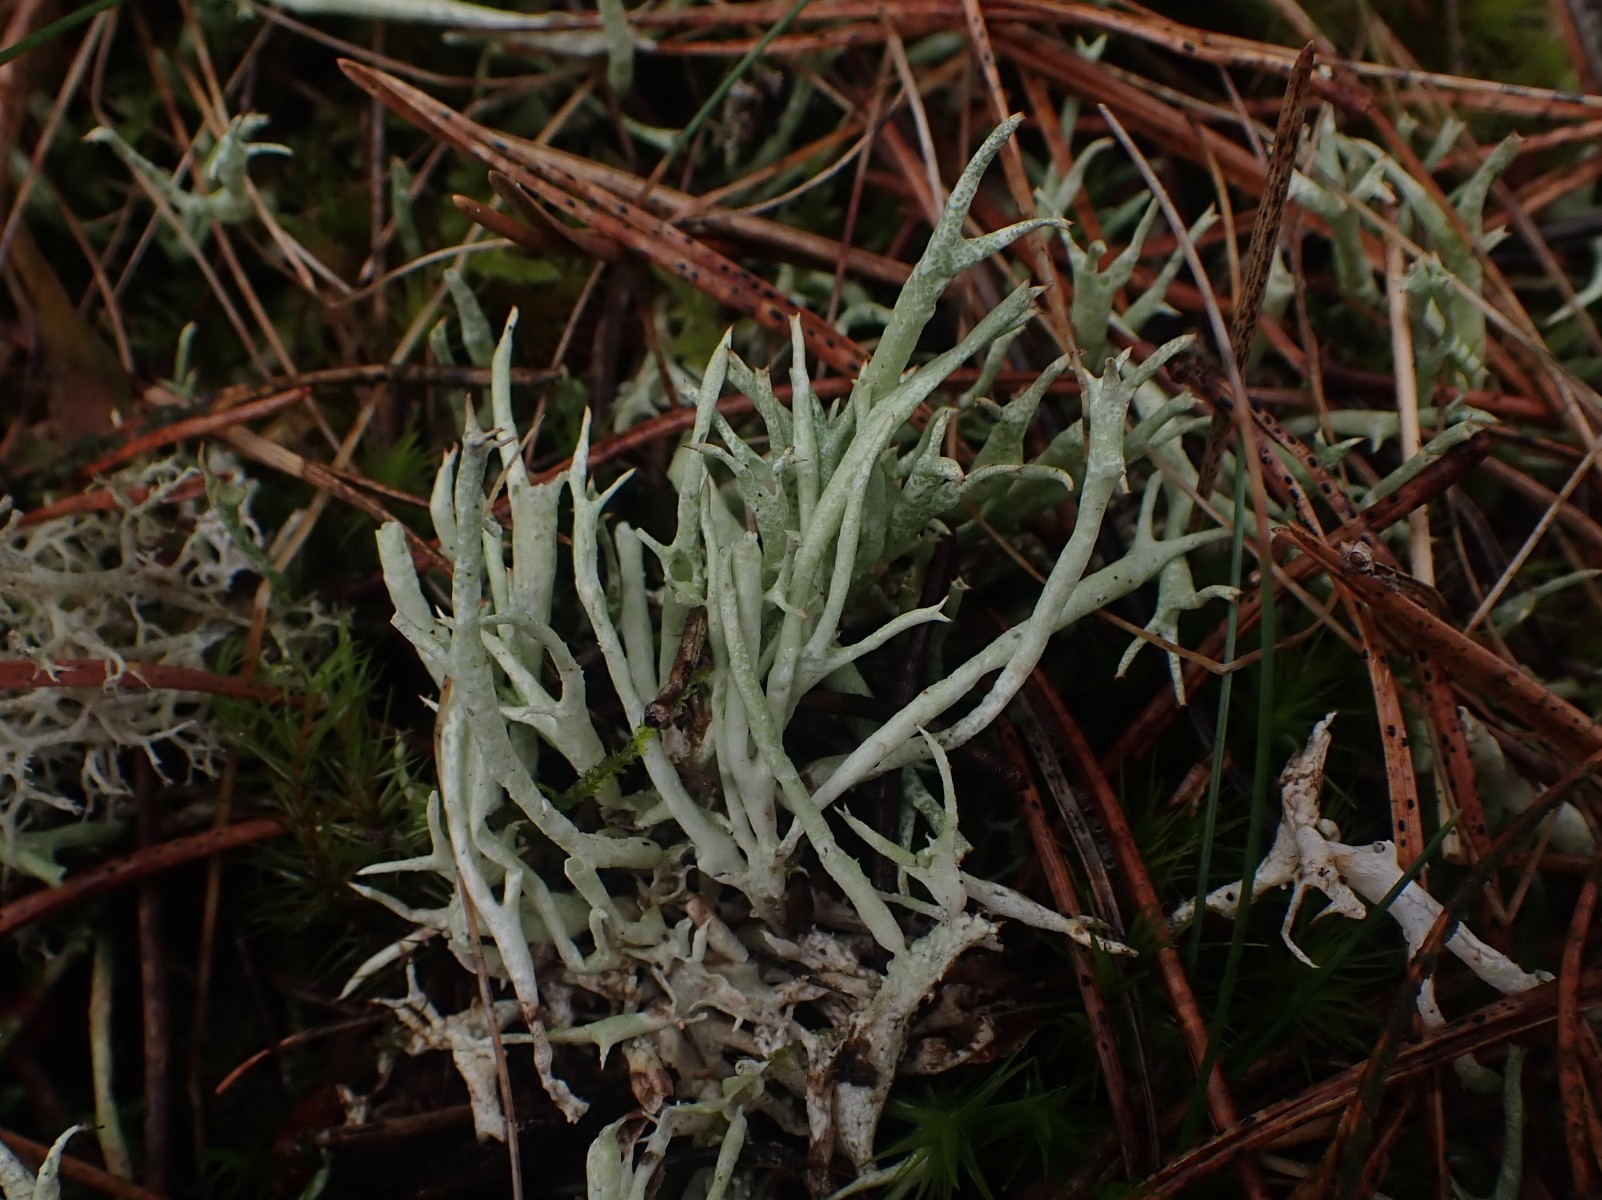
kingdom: Fungi
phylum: Ascomycota
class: Lecanoromycetes
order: Lecanorales
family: Cladoniaceae
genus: Cladonia
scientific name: Cladonia uncialis
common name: pigget bægerlav
